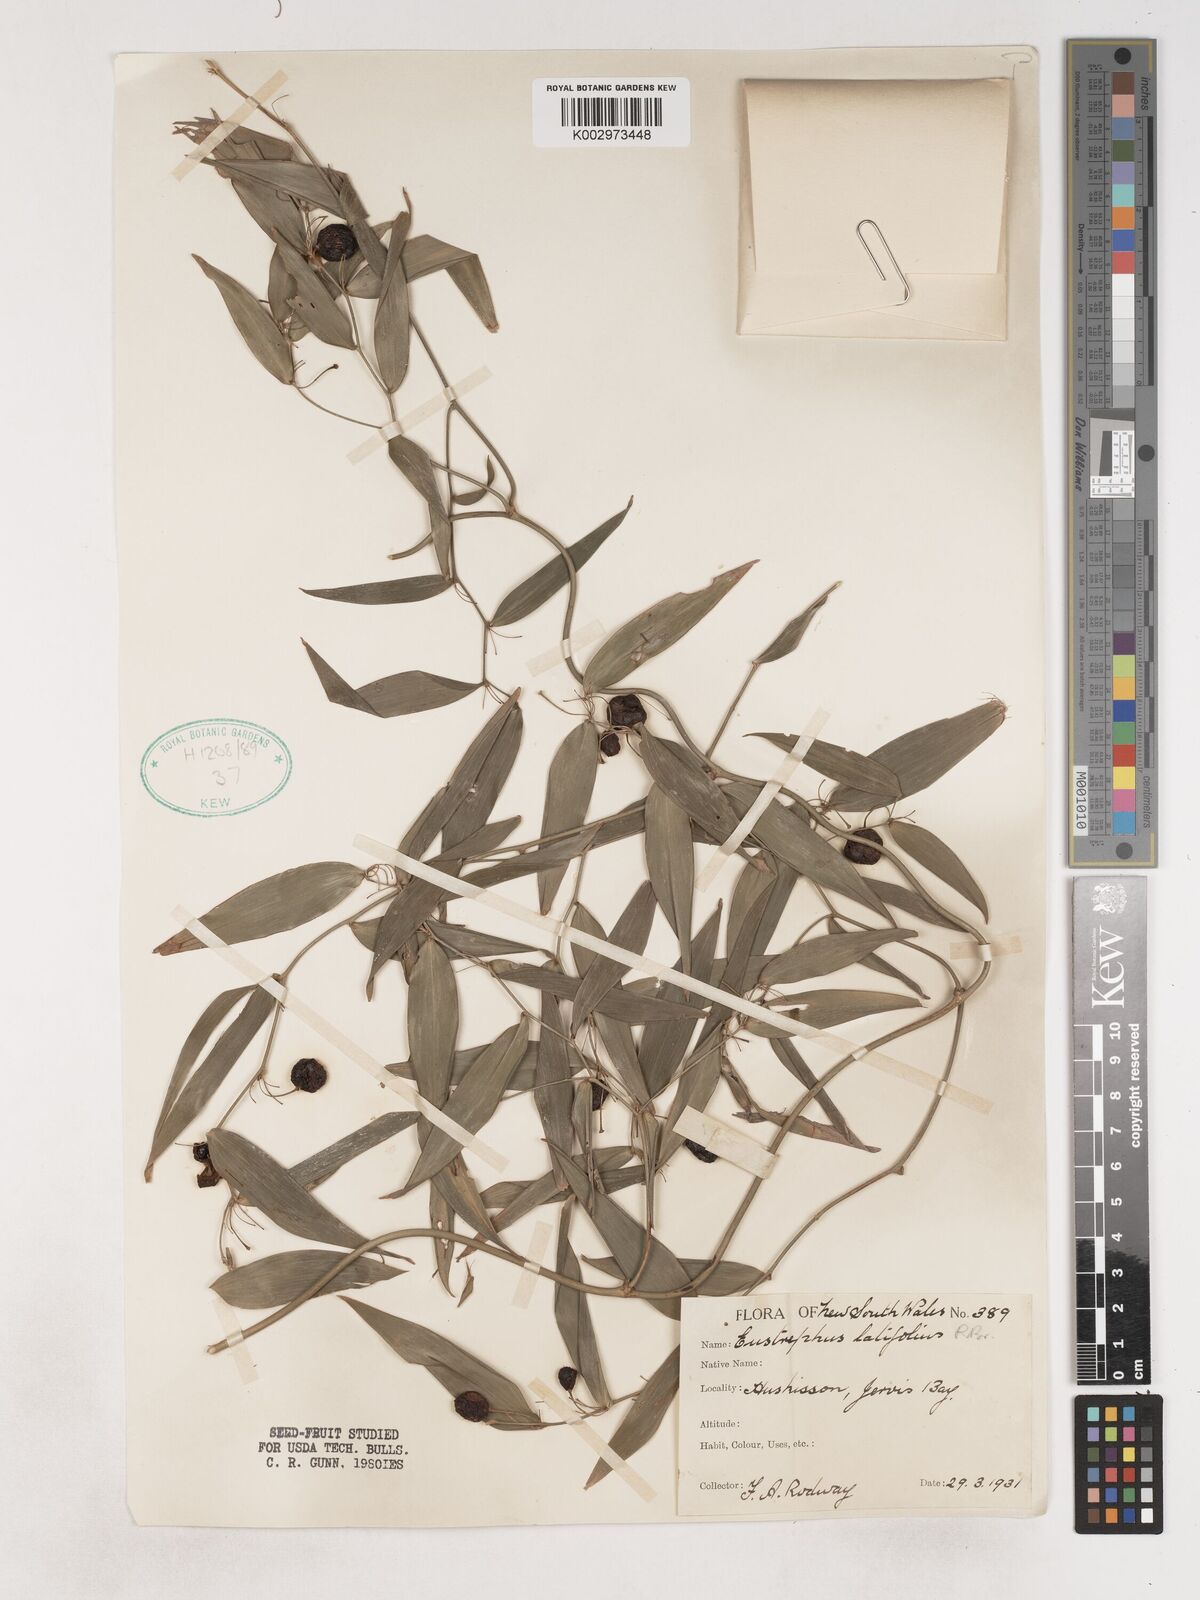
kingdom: Plantae
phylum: Tracheophyta
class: Liliopsida
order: Asparagales
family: Asparagaceae
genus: Eustrephus
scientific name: Eustrephus latifolius
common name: Orangevine
